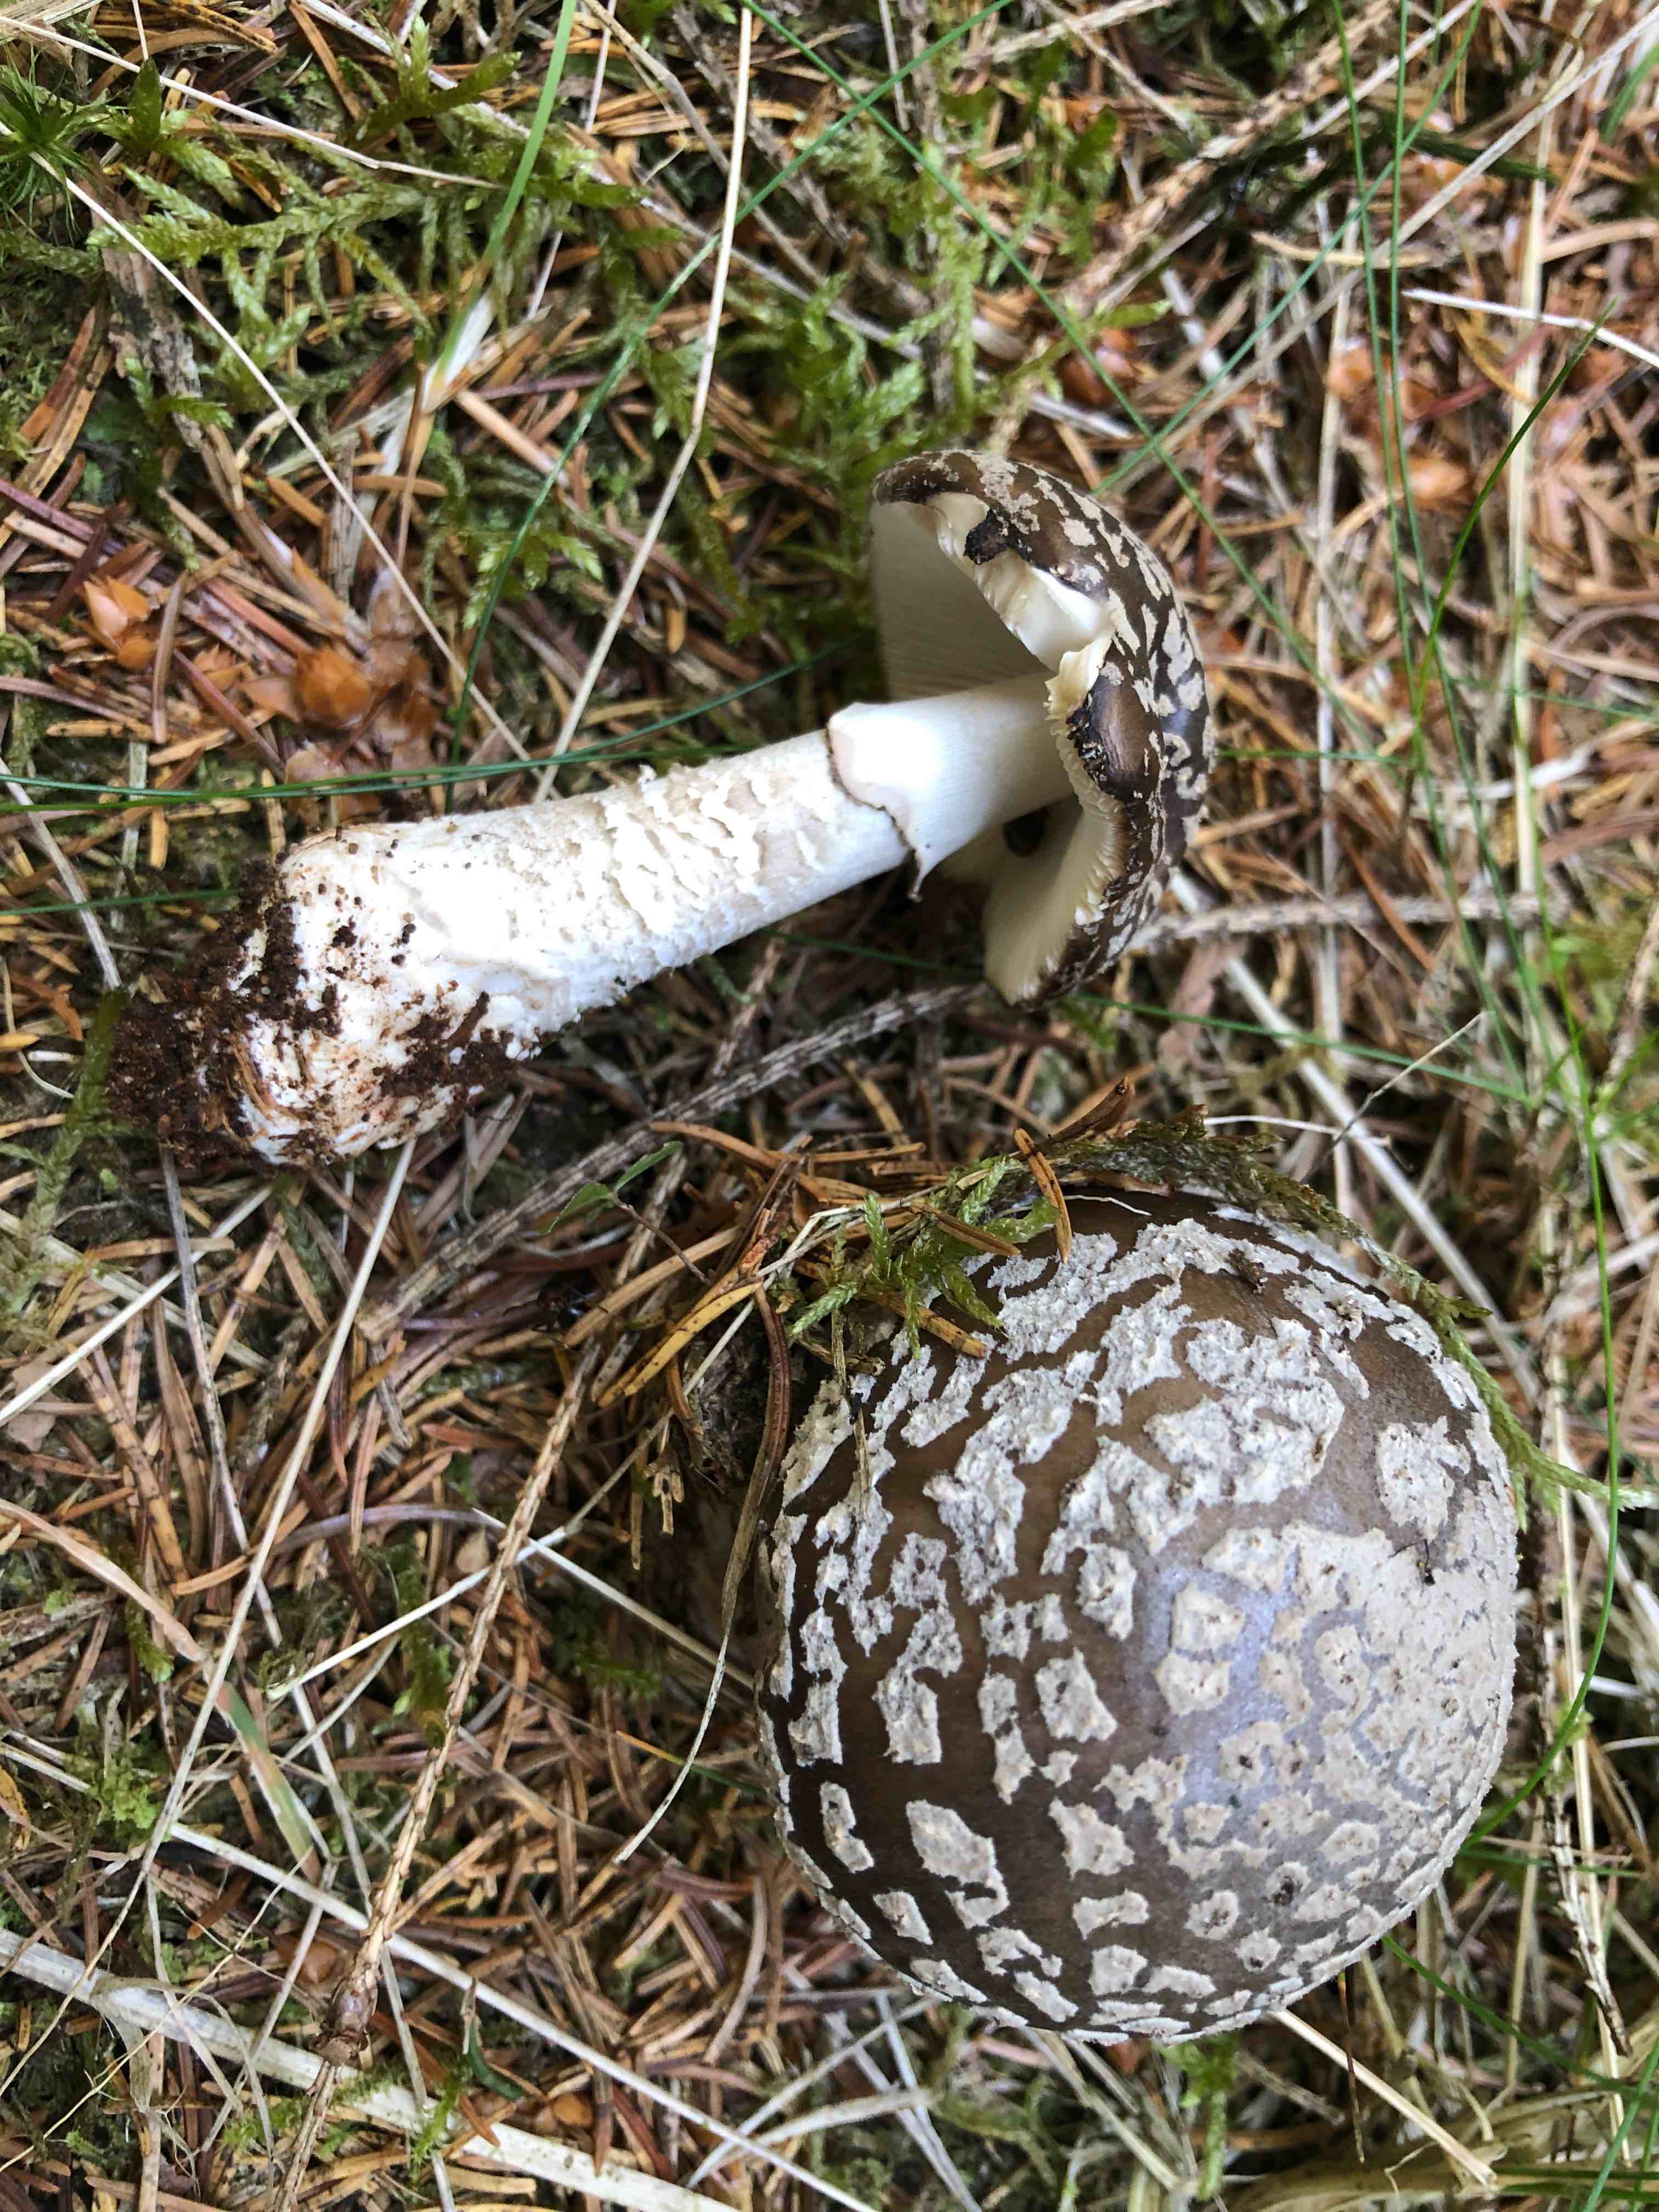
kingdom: Fungi
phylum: Basidiomycota
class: Agaricomycetes
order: Agaricales
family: Amanitaceae
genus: Amanita
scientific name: Amanita
